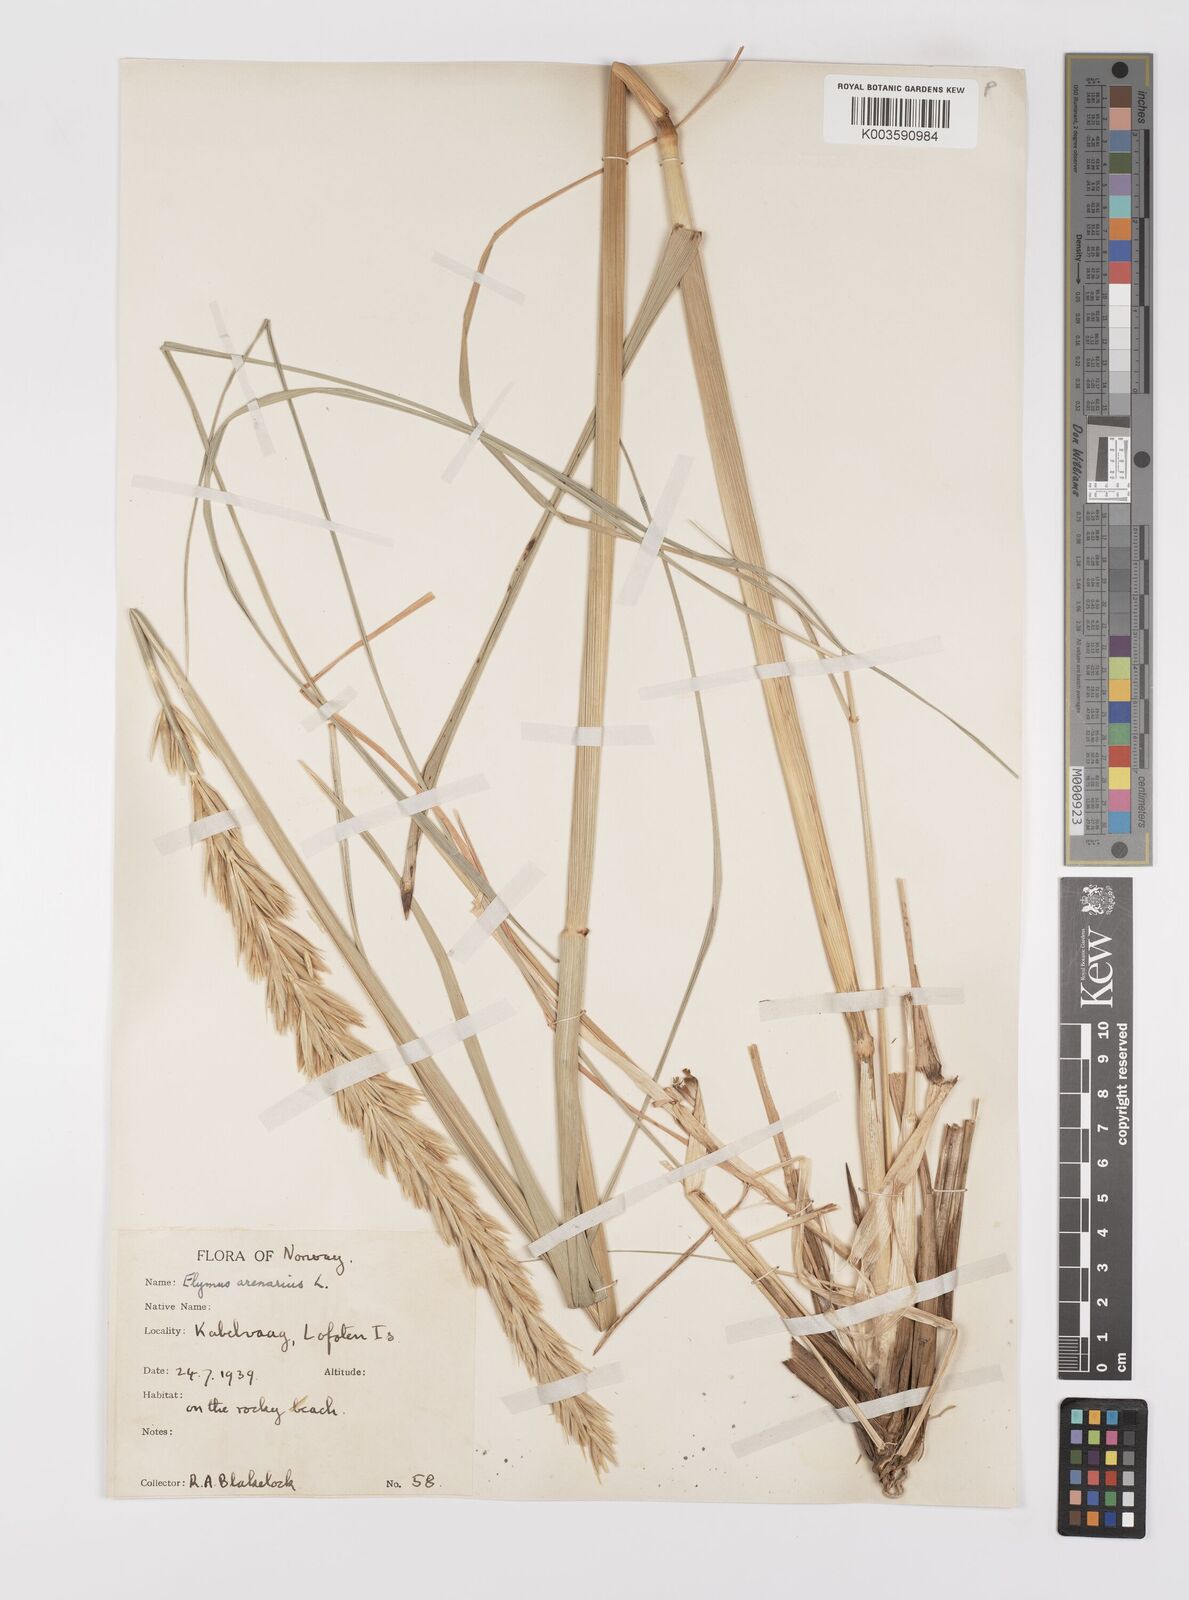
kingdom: Plantae
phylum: Tracheophyta
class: Liliopsida
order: Poales
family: Poaceae
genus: Leymus
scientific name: Leymus arenarius
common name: Lyme-grass
